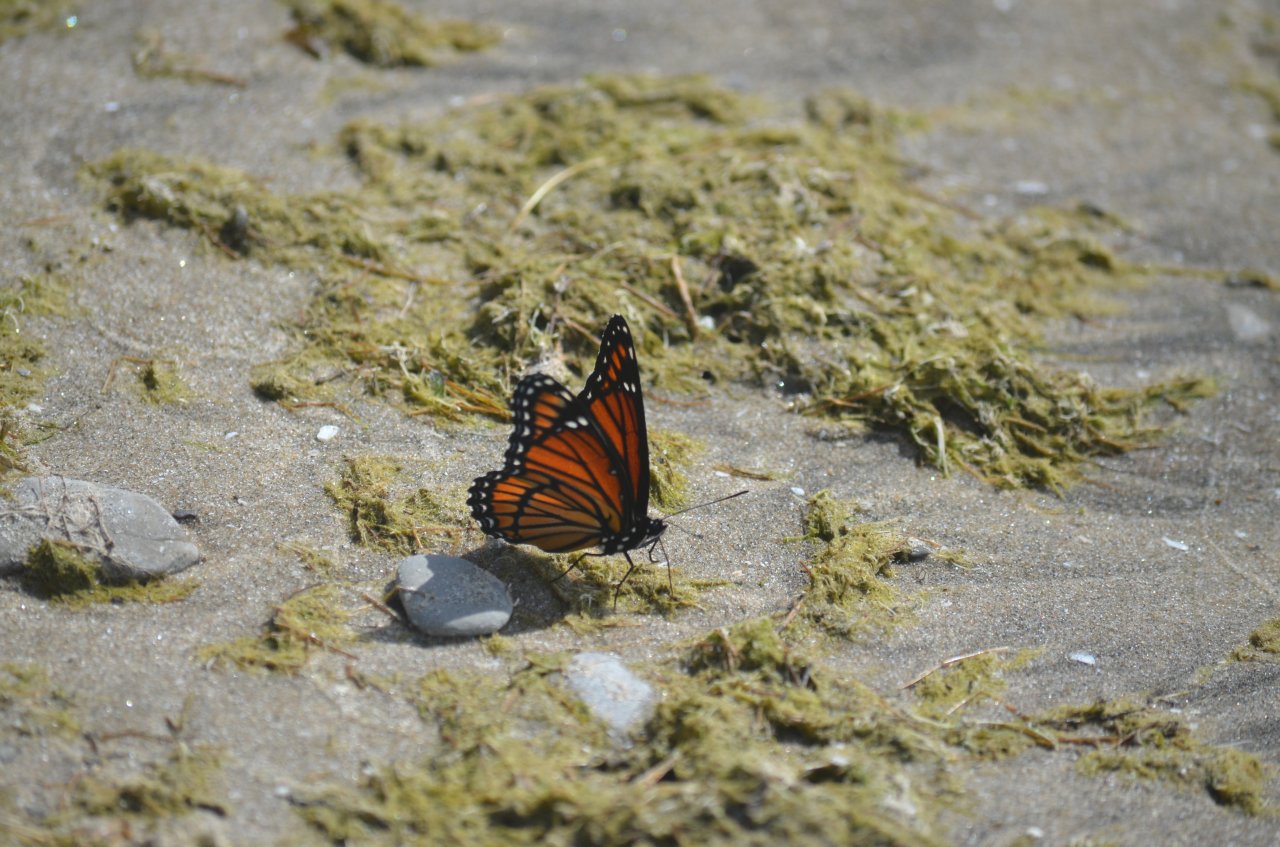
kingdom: Animalia
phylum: Arthropoda
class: Insecta
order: Lepidoptera
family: Nymphalidae
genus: Limenitis
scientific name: Limenitis archippus
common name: Viceroy
